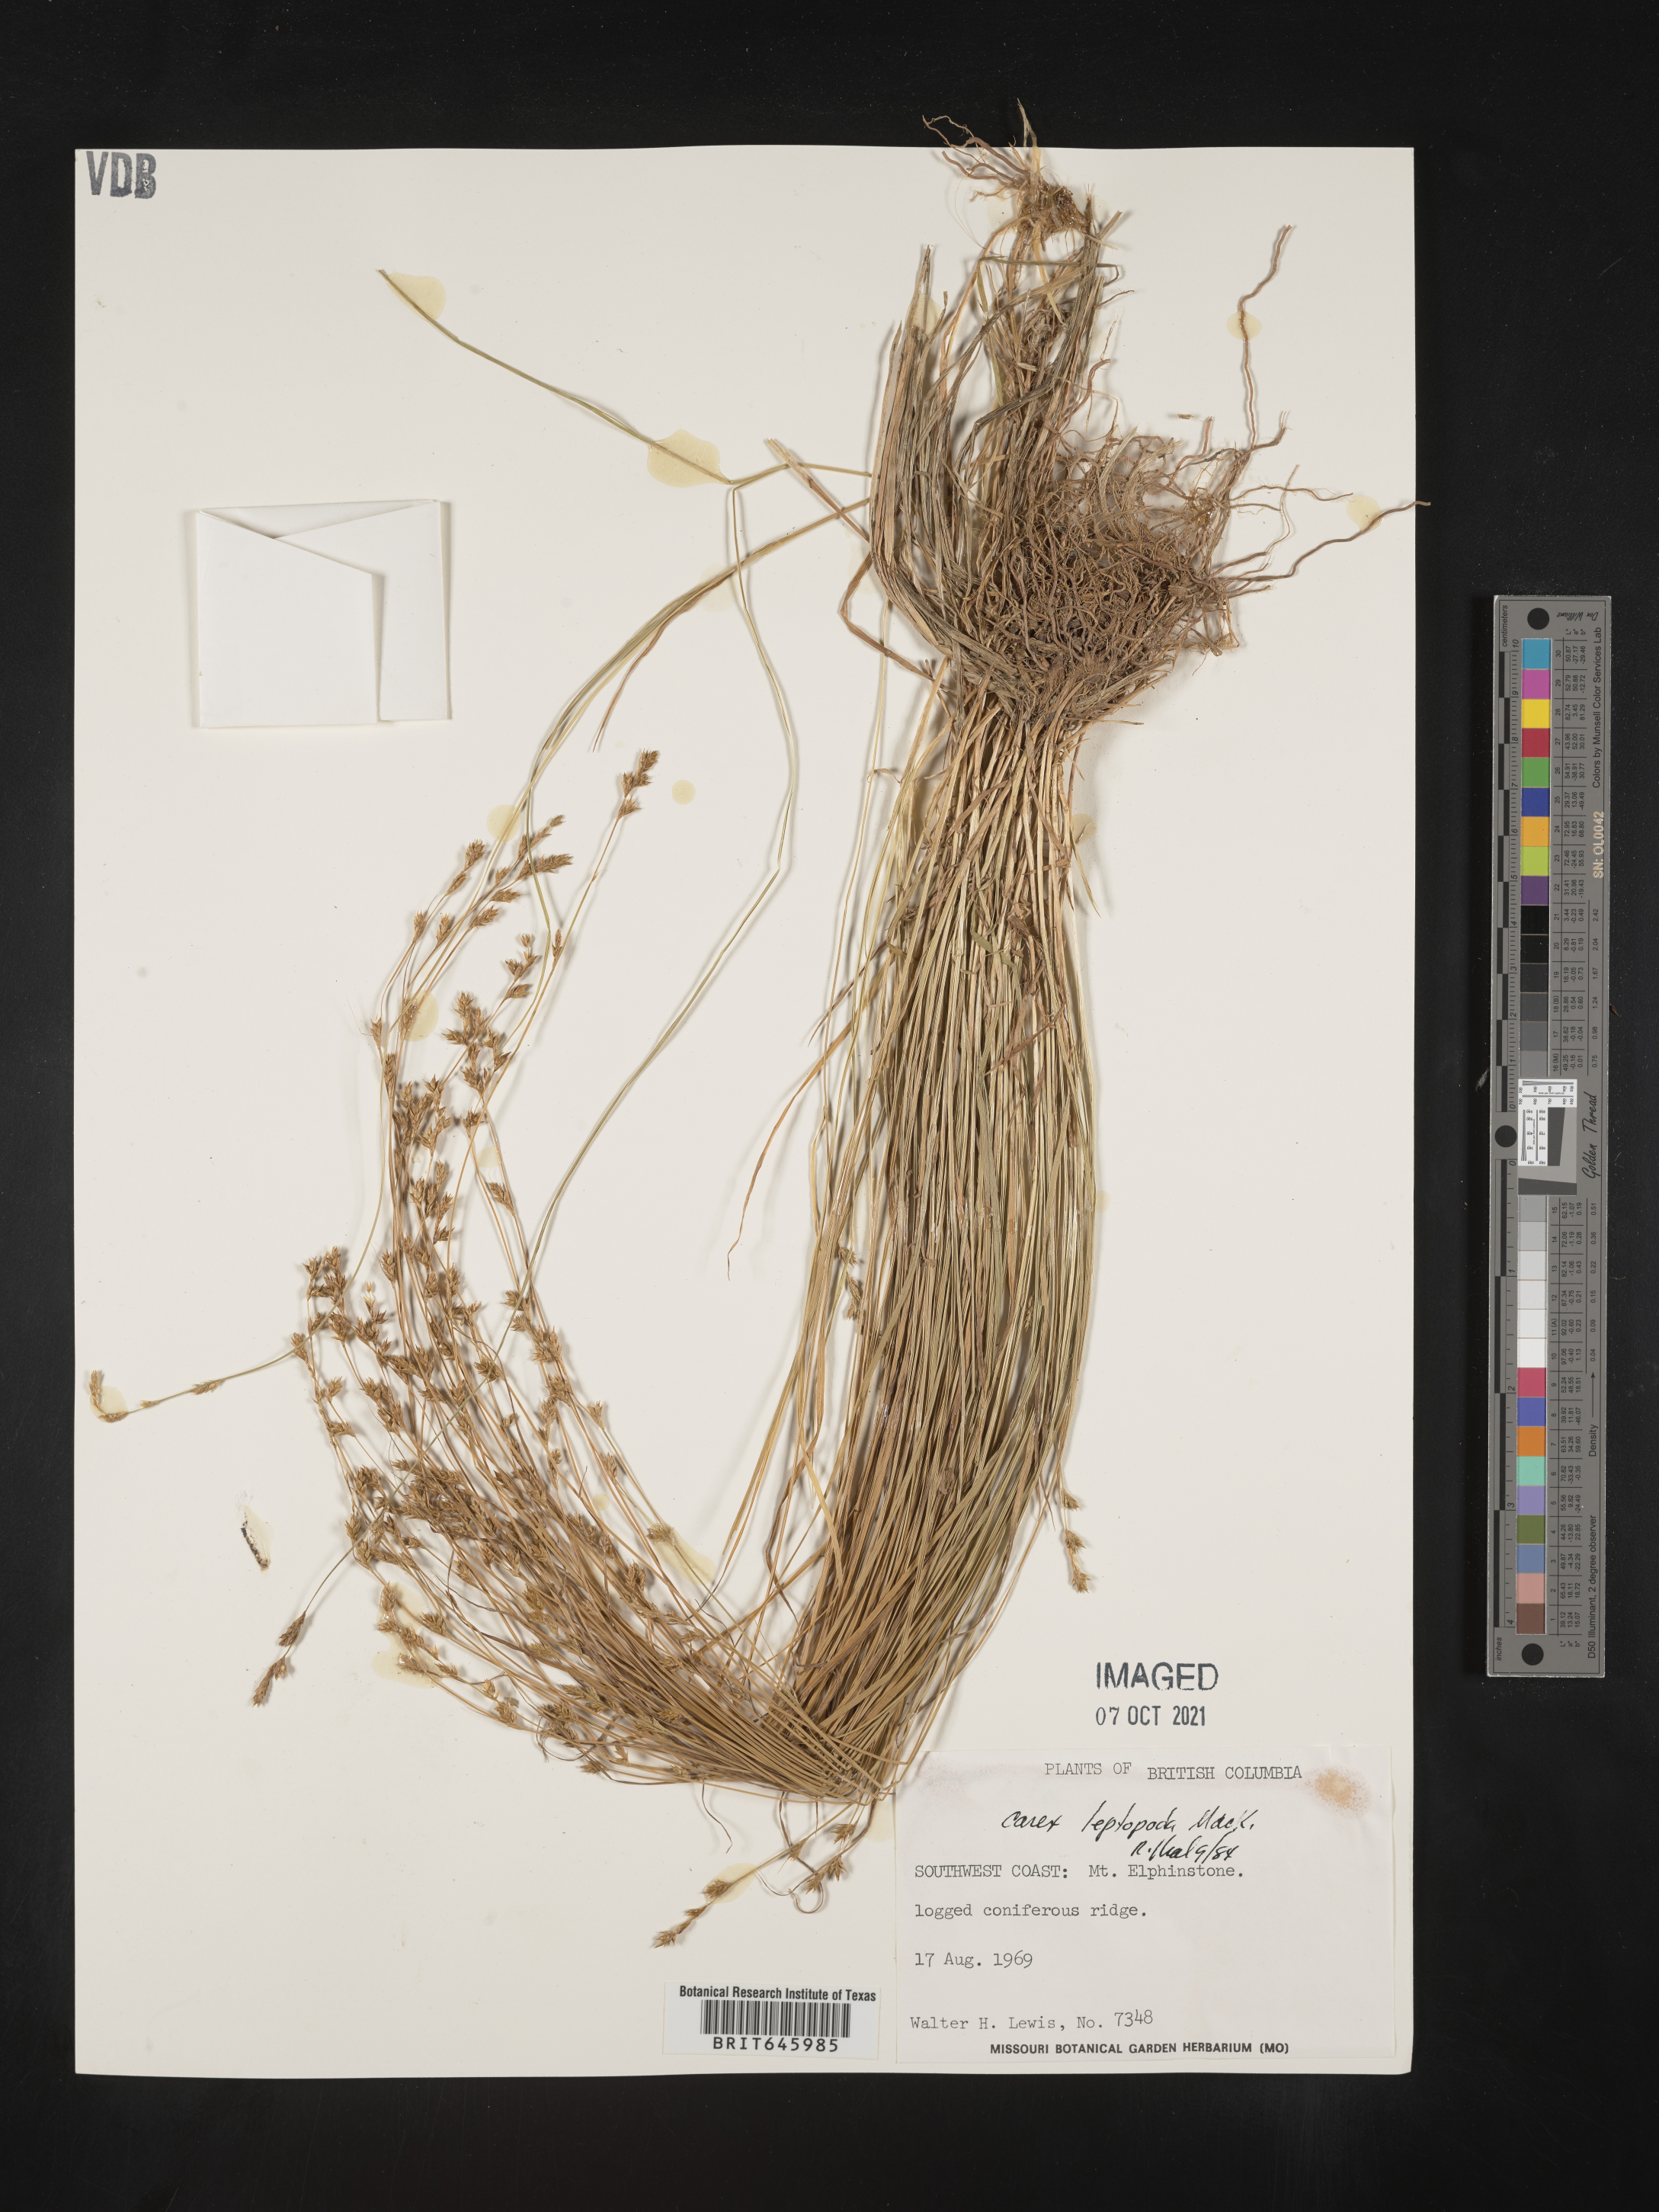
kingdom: Plantae
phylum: Tracheophyta
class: Liliopsida
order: Poales
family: Cyperaceae
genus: Carex
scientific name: Carex leptopoda
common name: Short-scale sedge
